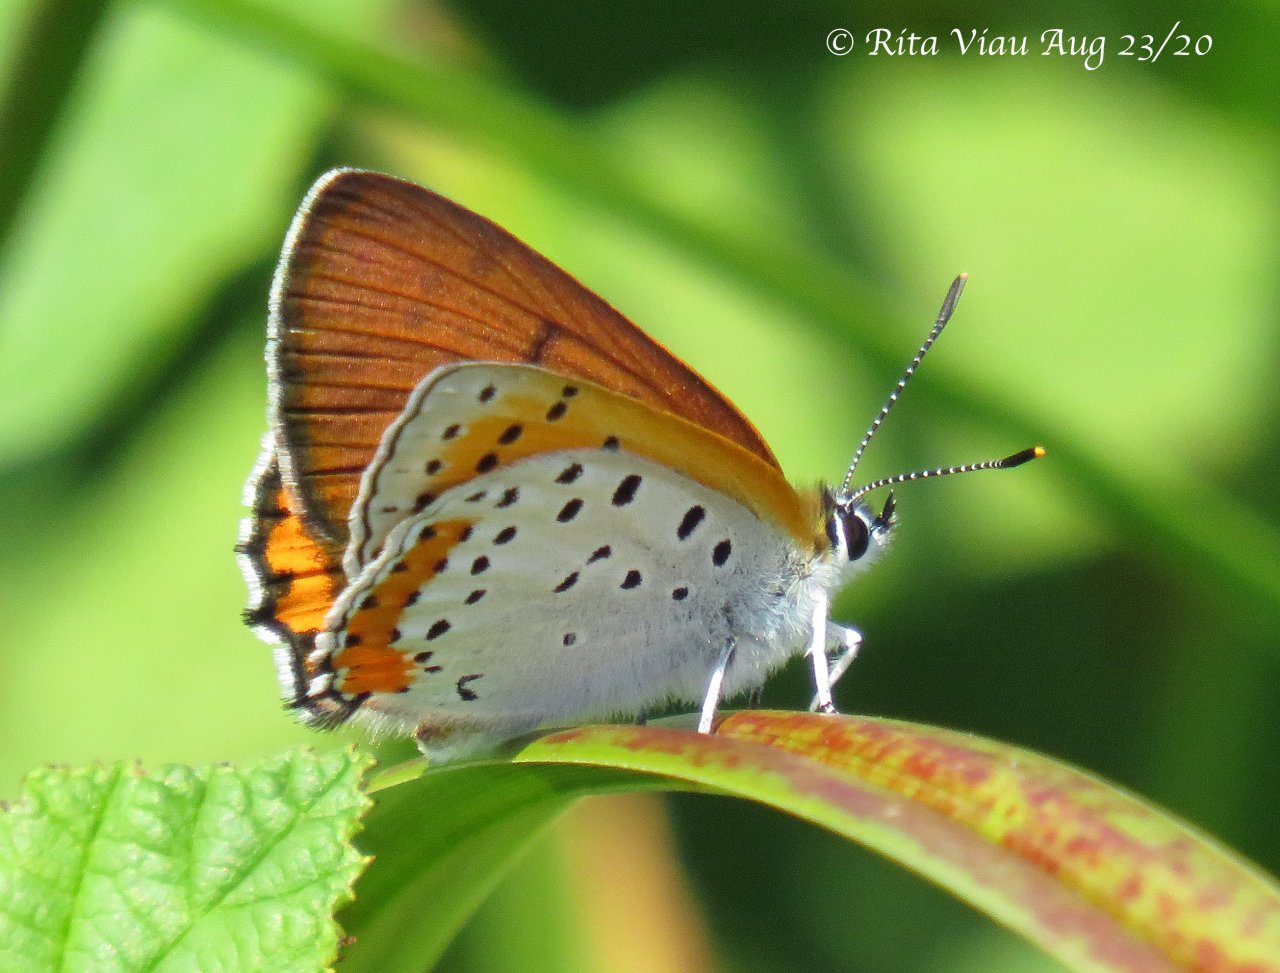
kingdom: Animalia
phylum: Arthropoda
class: Insecta
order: Lepidoptera
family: Sesiidae
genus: Sesia
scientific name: Sesia Lycaena hyllus
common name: Bronze Copper
